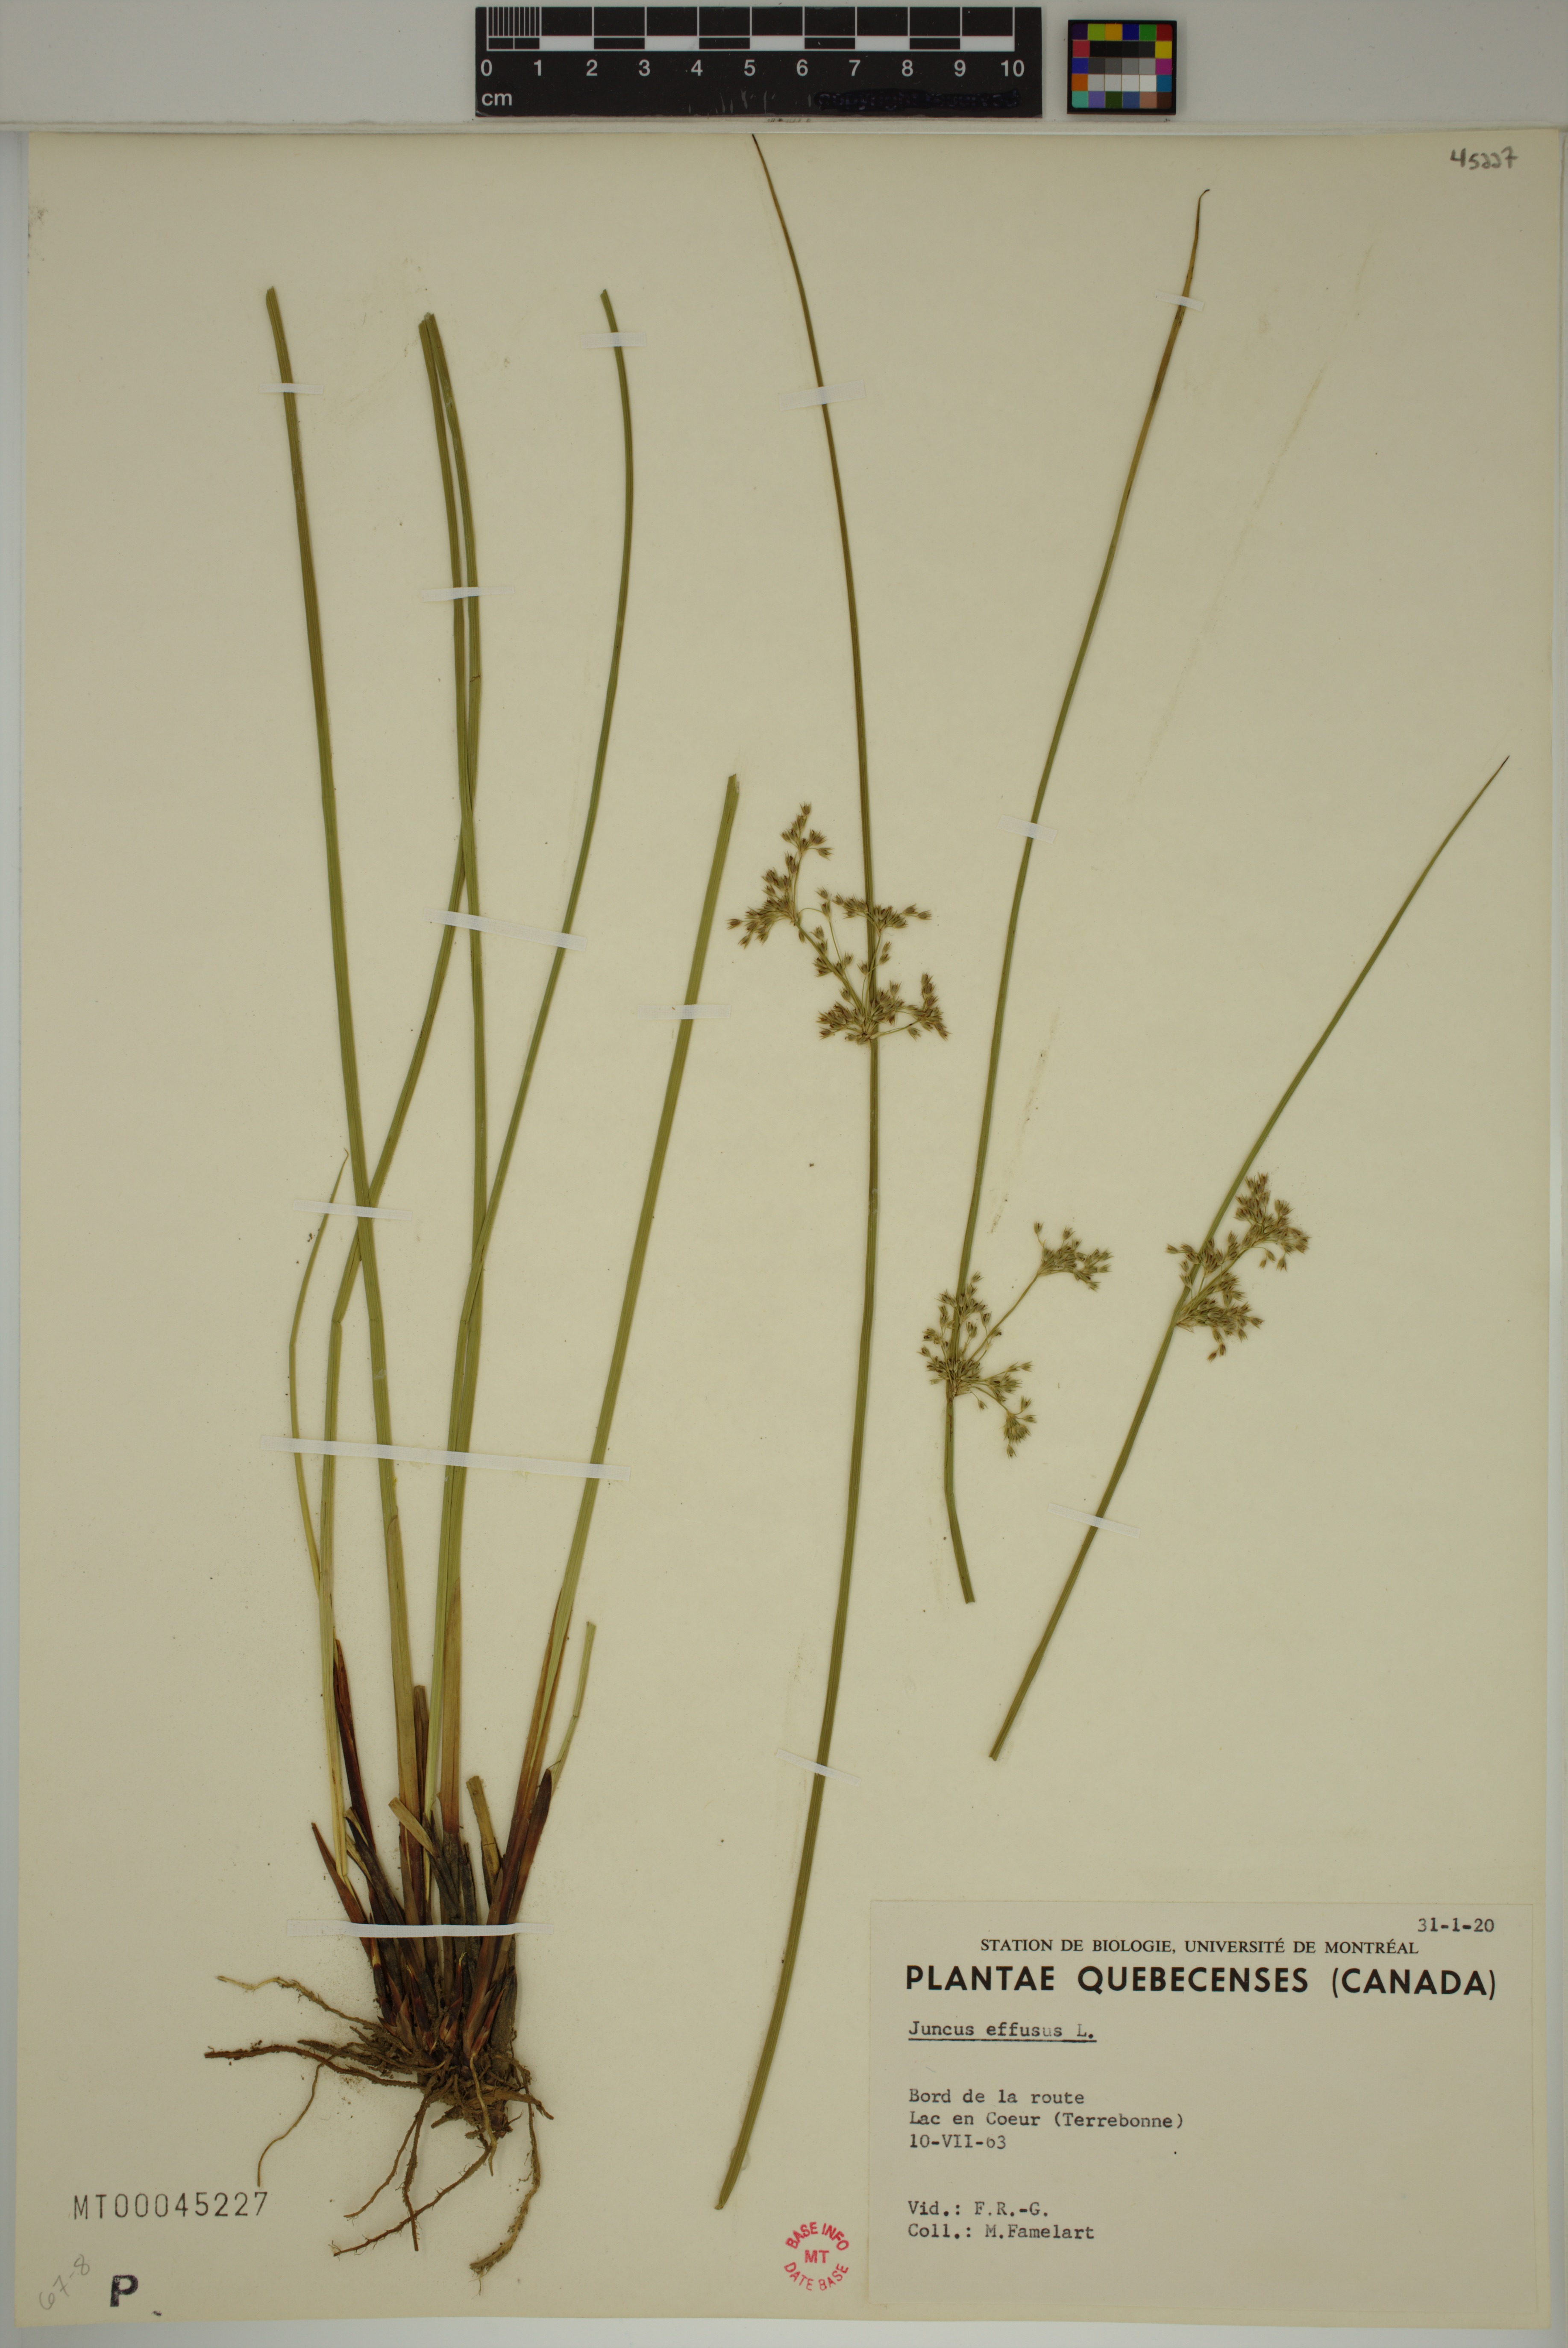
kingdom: Plantae
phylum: Tracheophyta
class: Liliopsida
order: Poales
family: Juncaceae
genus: Juncus
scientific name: Juncus effusus
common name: Soft rush
